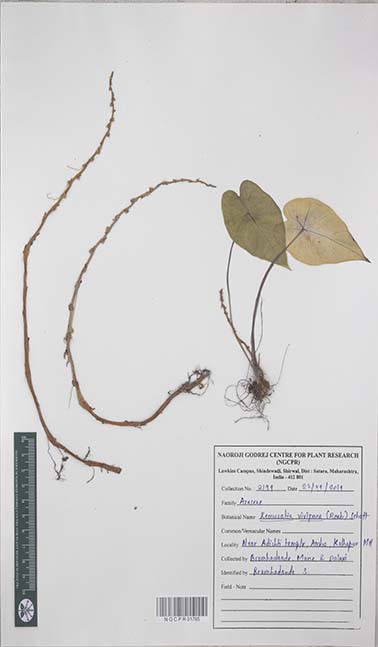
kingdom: Plantae
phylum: Tracheophyta
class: Liliopsida
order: Alismatales
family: Araceae
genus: Remusatia
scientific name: Remusatia vivipara
